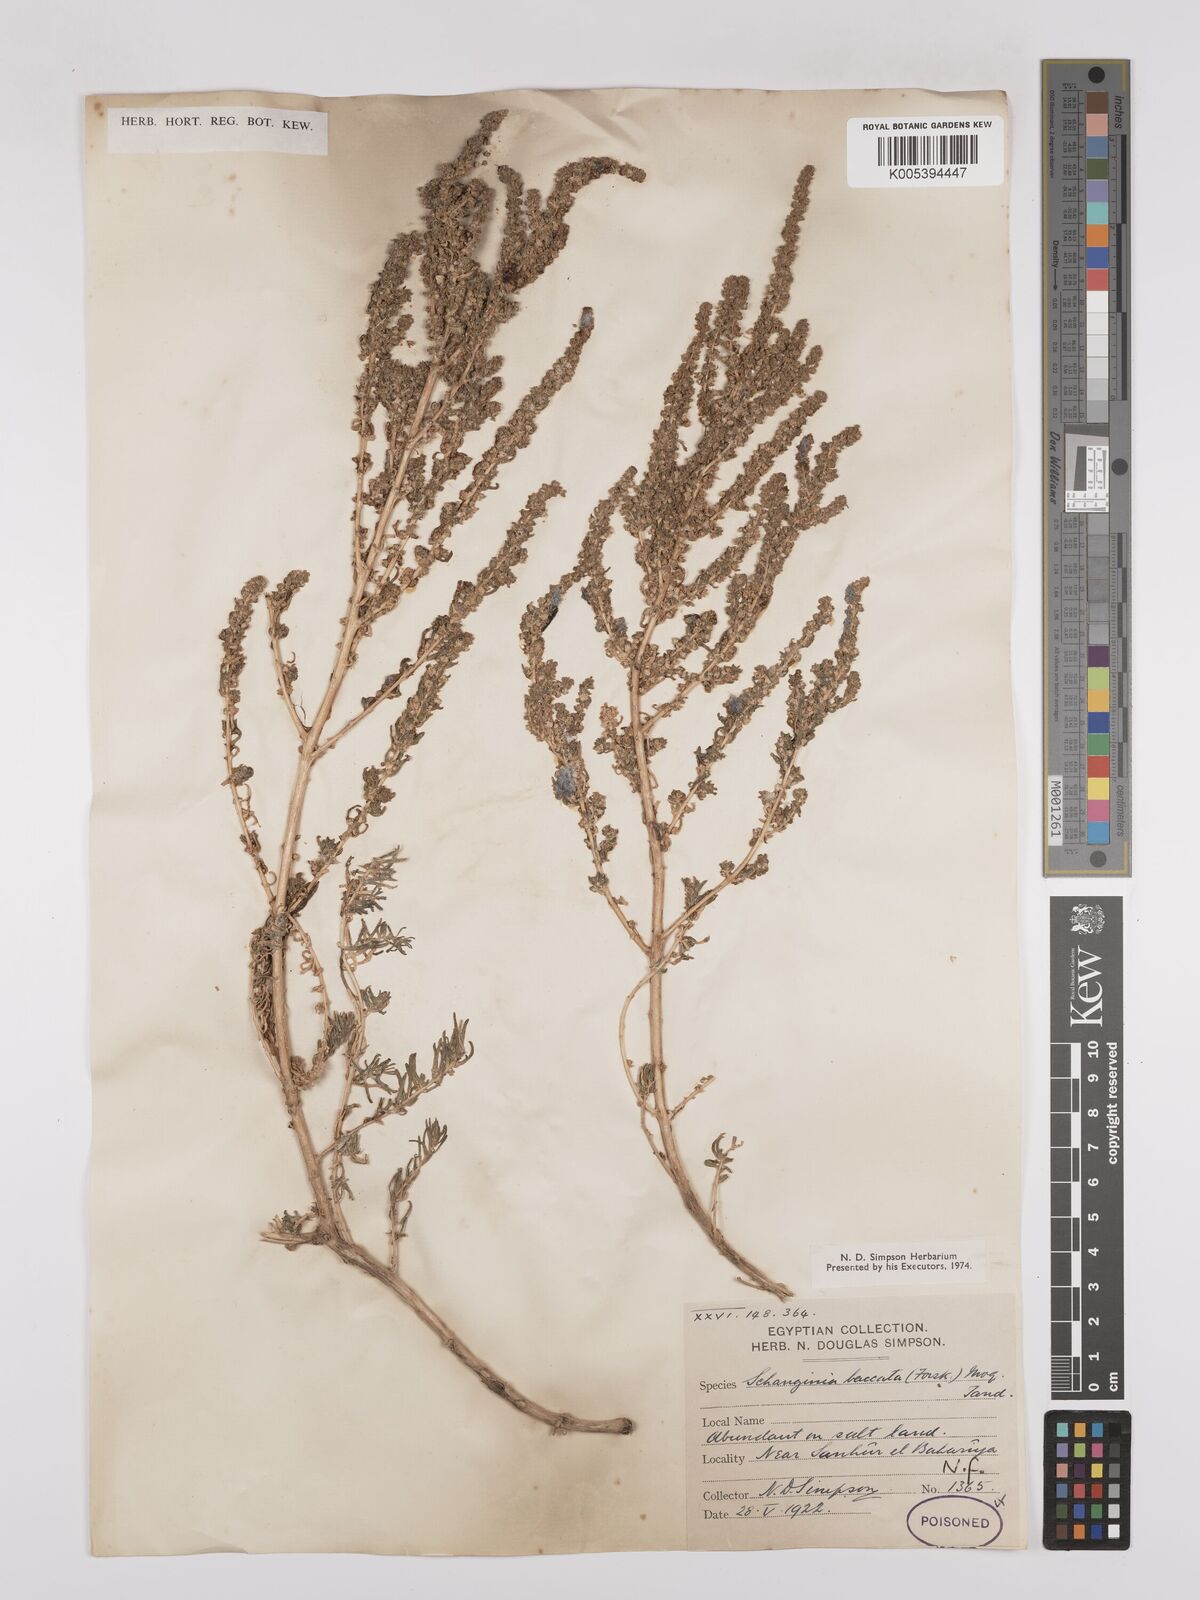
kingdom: Plantae
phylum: Tracheophyta
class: Magnoliopsida
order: Caryophyllales
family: Amaranthaceae
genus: Suaeda
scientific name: Suaeda aegyptiaca
